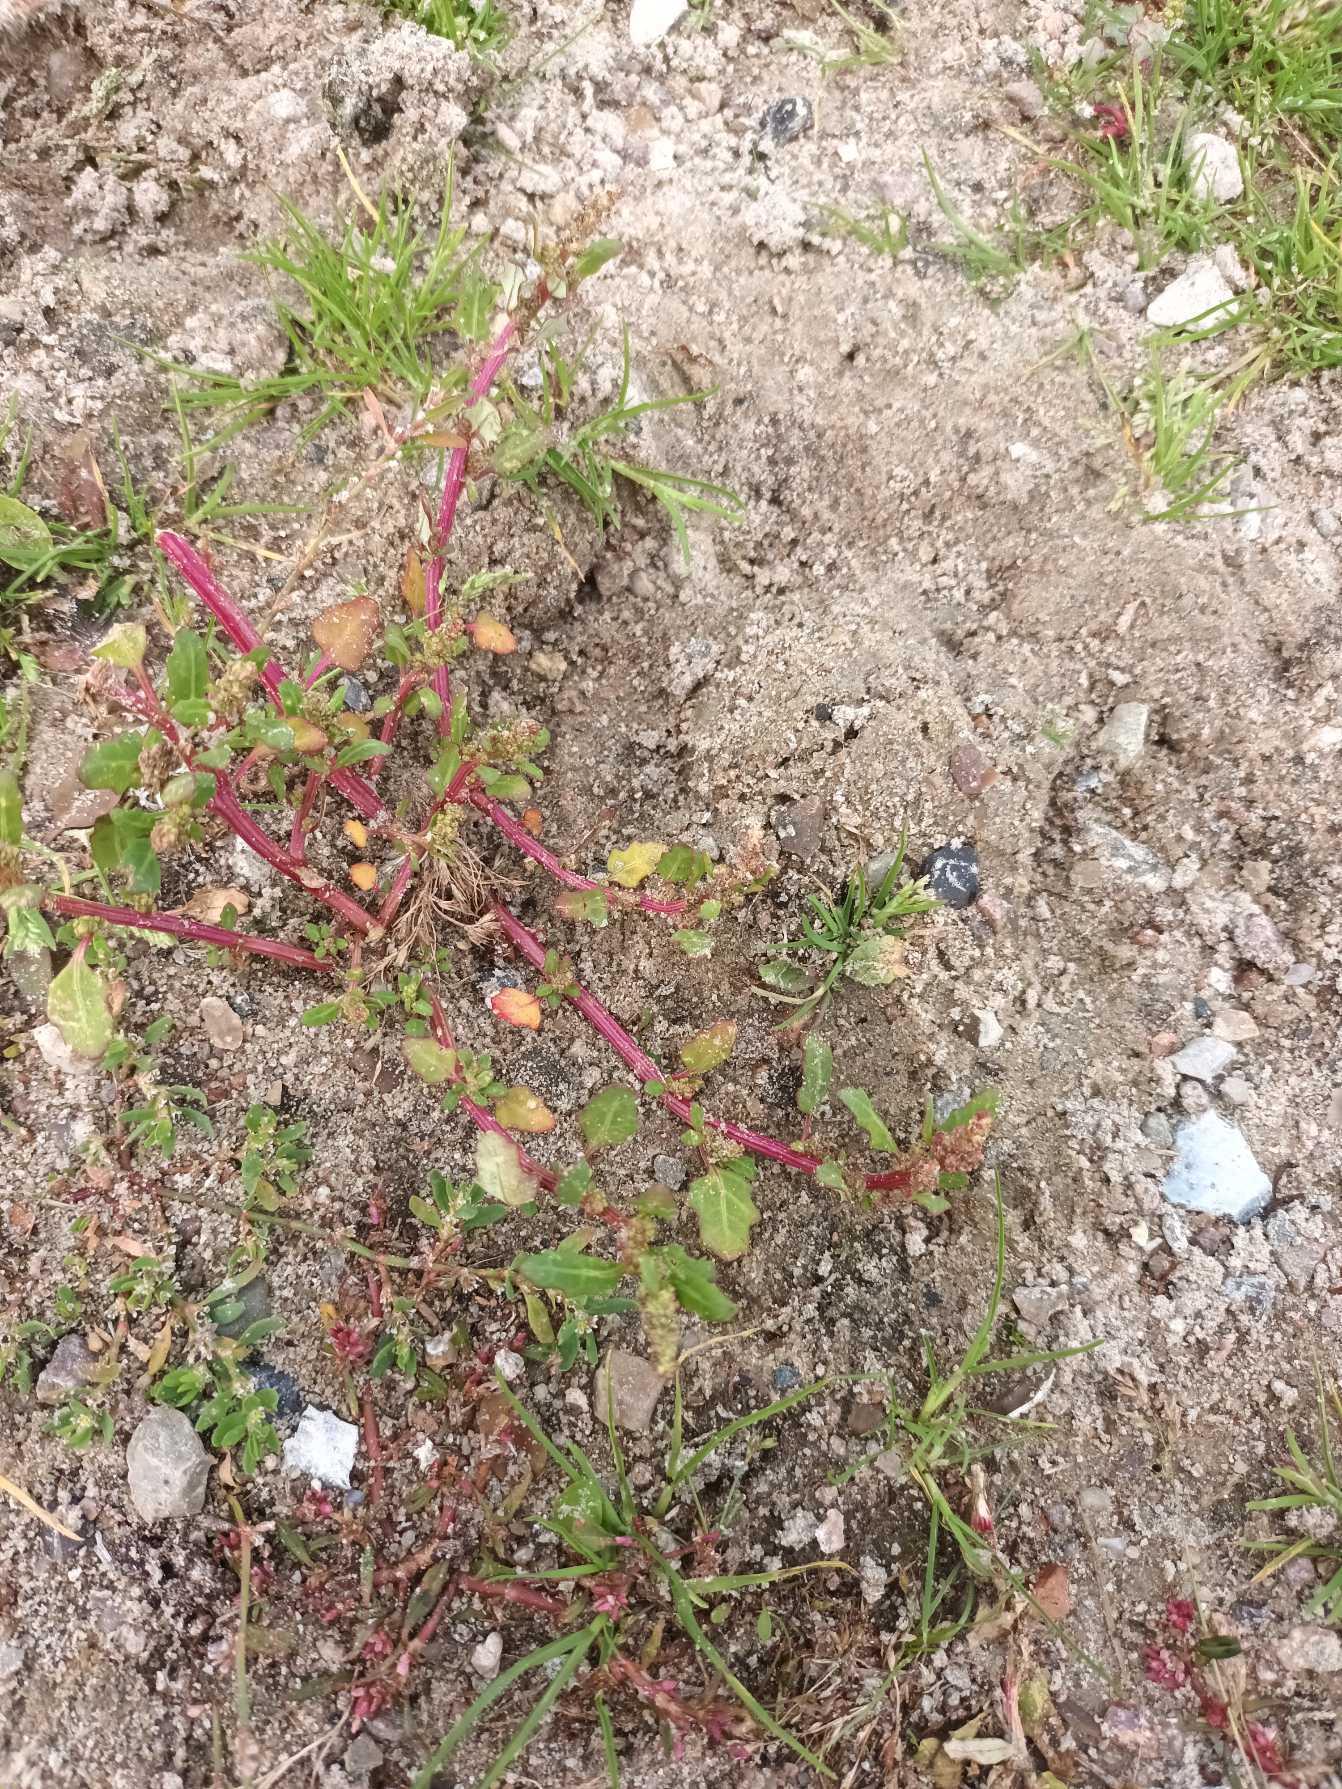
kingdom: Plantae
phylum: Tracheophyta
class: Magnoliopsida
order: Caryophyllales
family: Amaranthaceae
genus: Oxybasis
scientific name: Oxybasis glauca
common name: Blågrøn gåsefod
